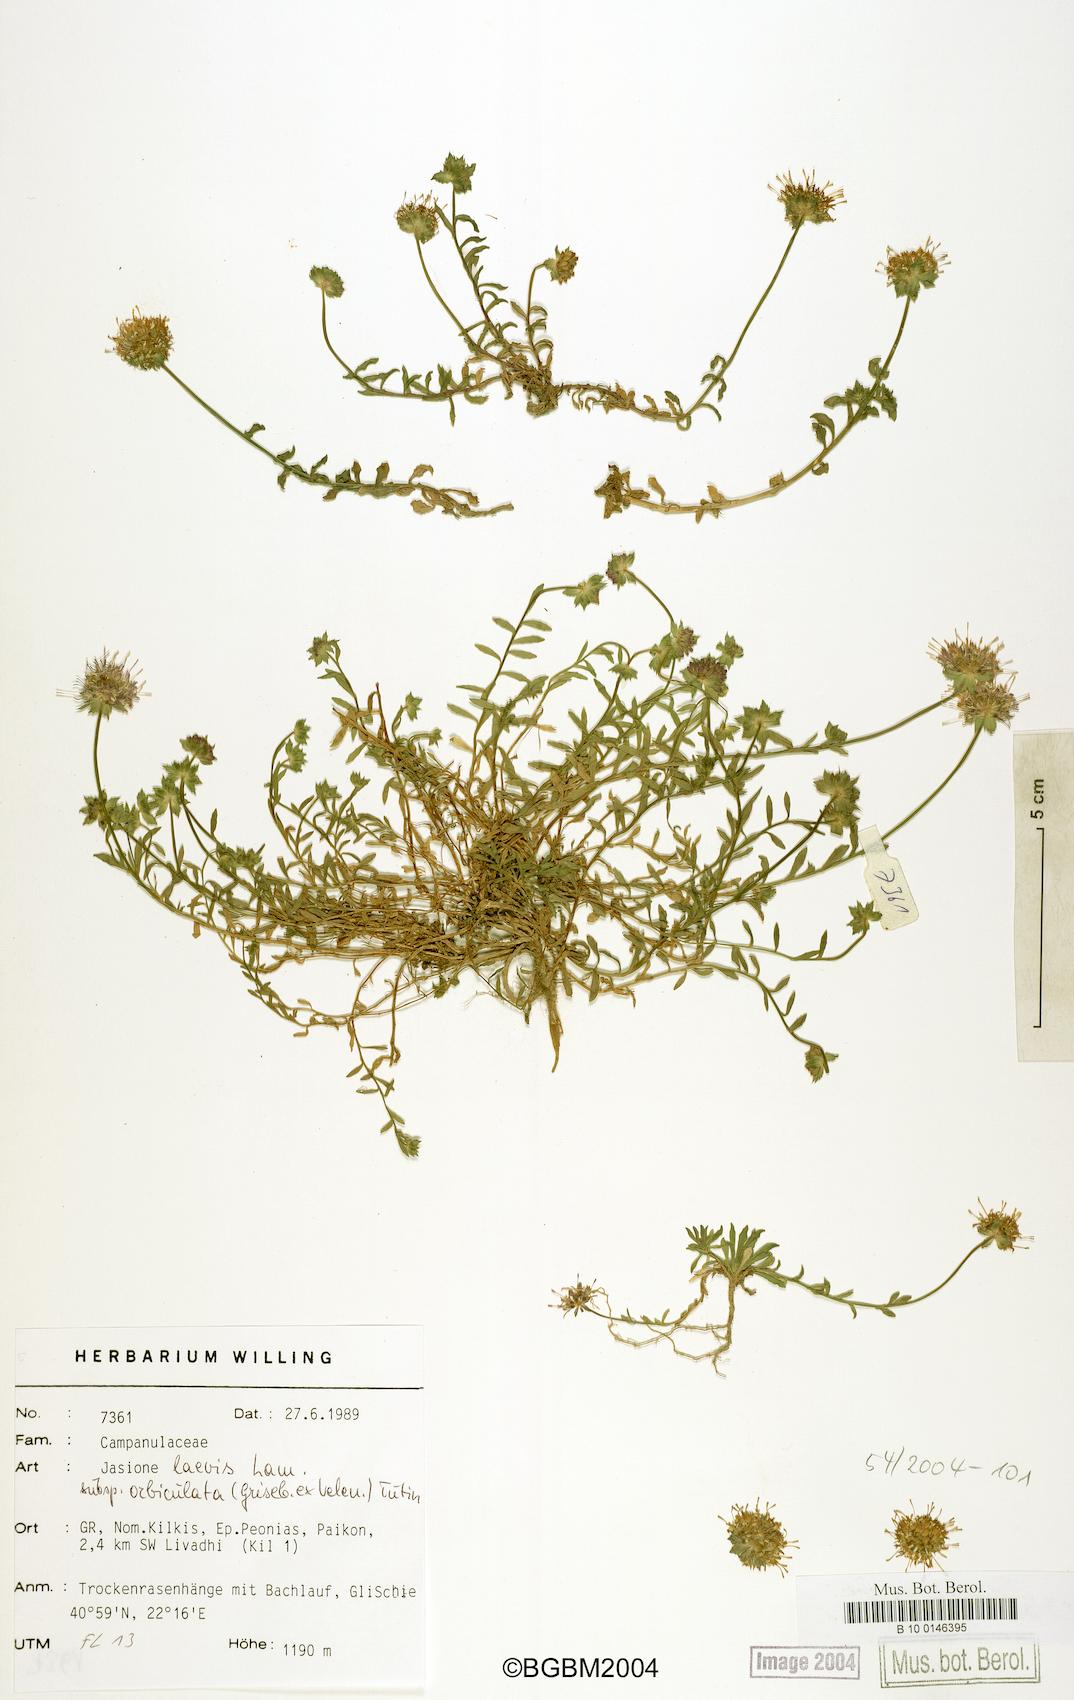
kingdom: Plantae
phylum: Tracheophyta
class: Magnoliopsida
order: Asterales
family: Campanulaceae
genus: Jasione
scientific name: Jasione orbiculata
